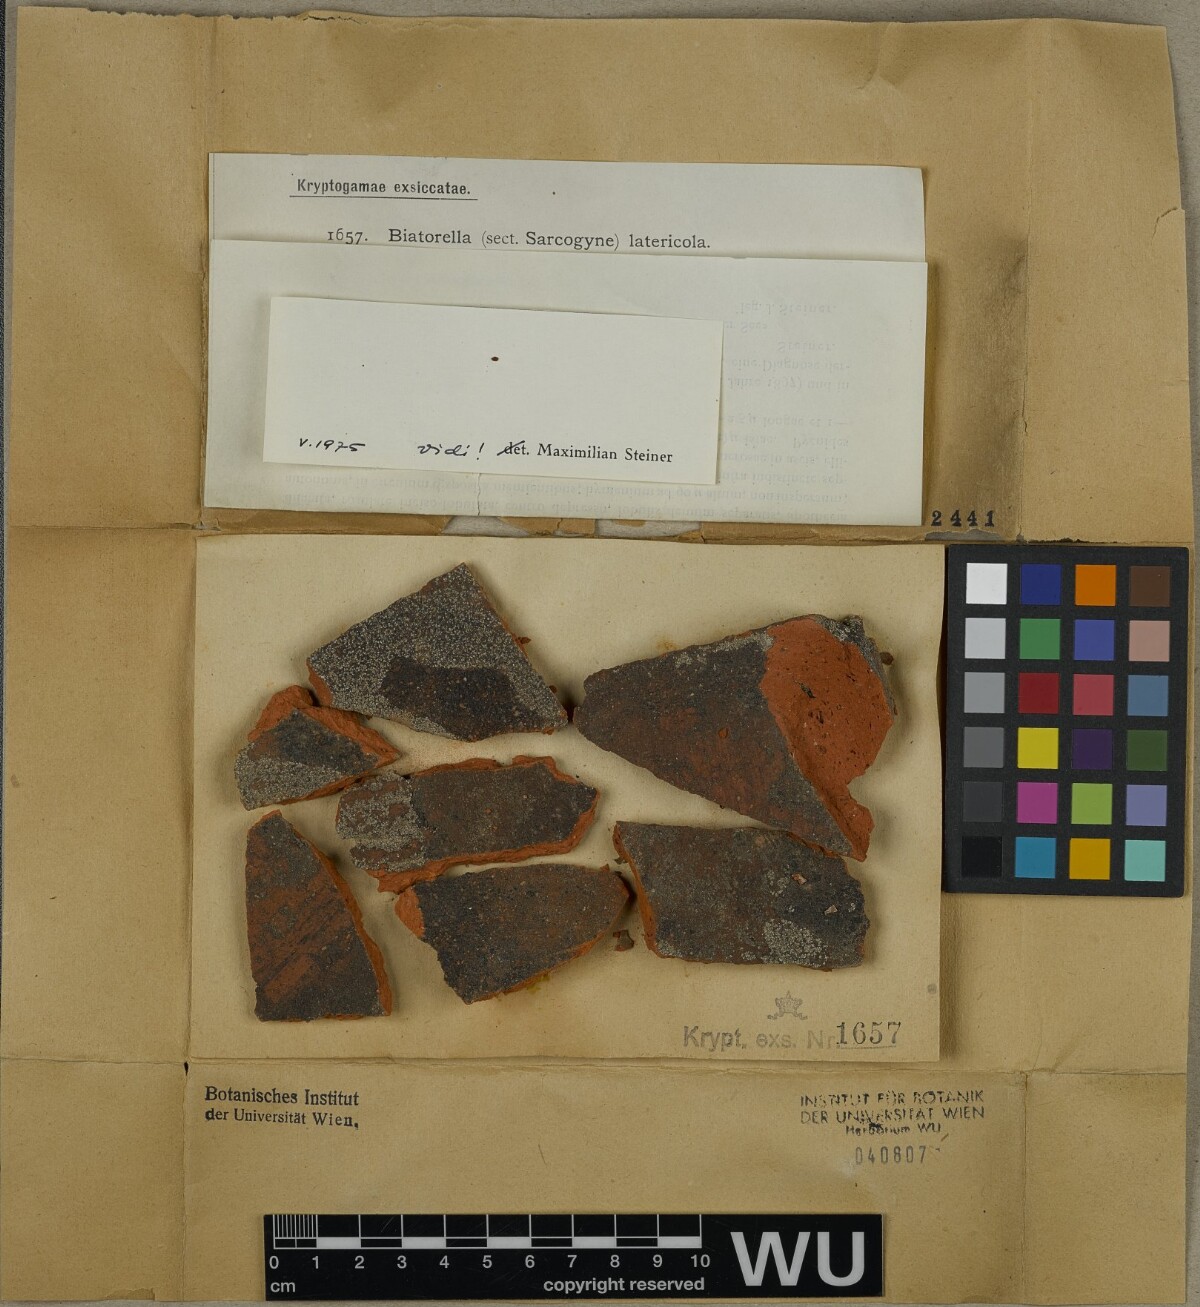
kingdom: Fungi
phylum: Ascomycota
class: Lecanoromycetes
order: Lecanorales
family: Biatorellaceae
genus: Biatorella
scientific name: Biatorella latericola
